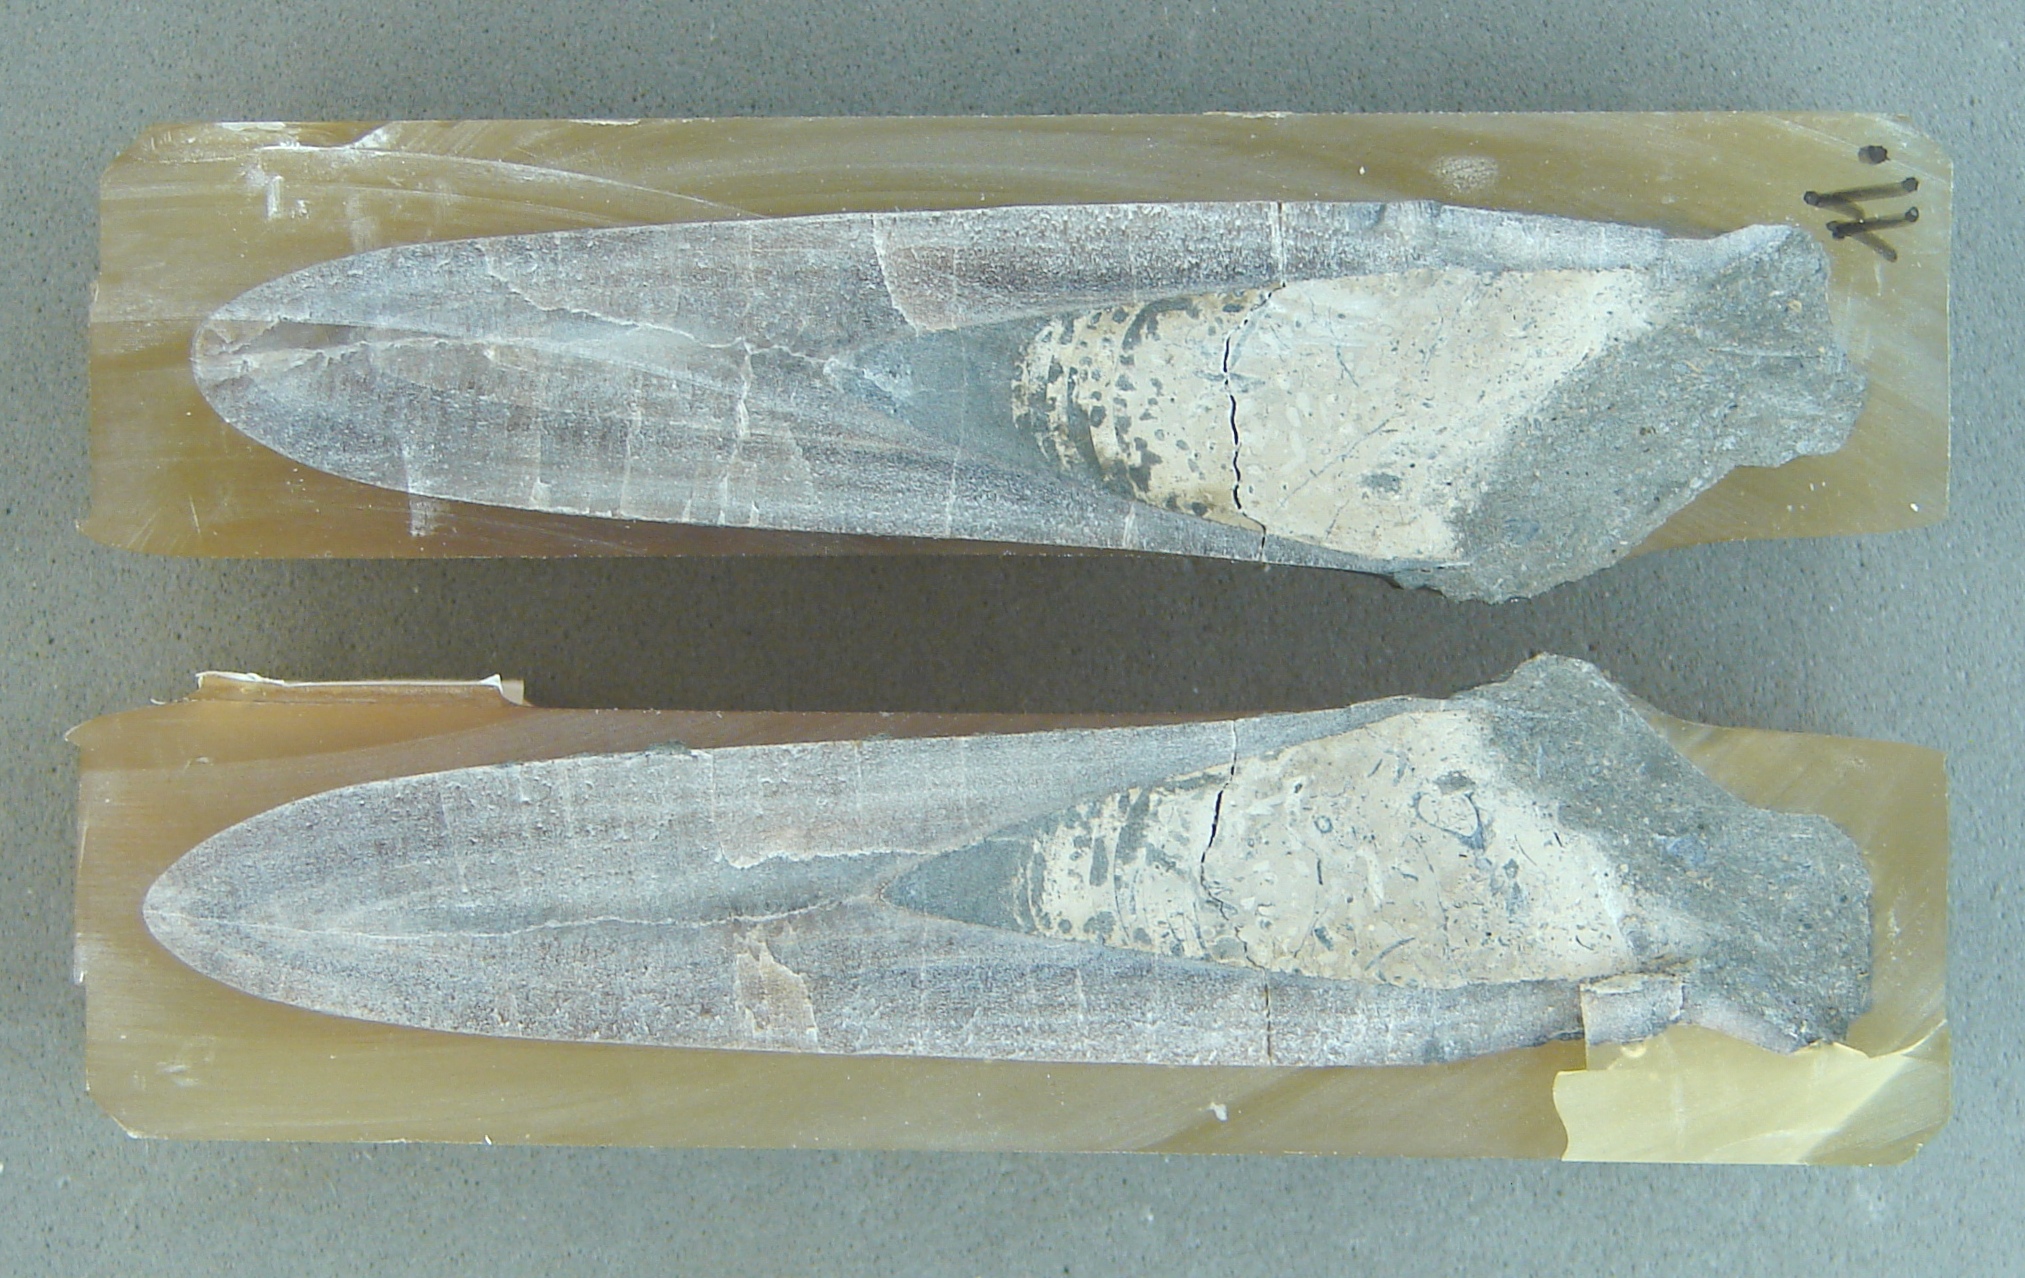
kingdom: Animalia
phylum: Mollusca
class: Cephalopoda
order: Belemnitida
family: Megateuthididae
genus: Dactyloteuthis
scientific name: Dactyloteuthis semistriata
